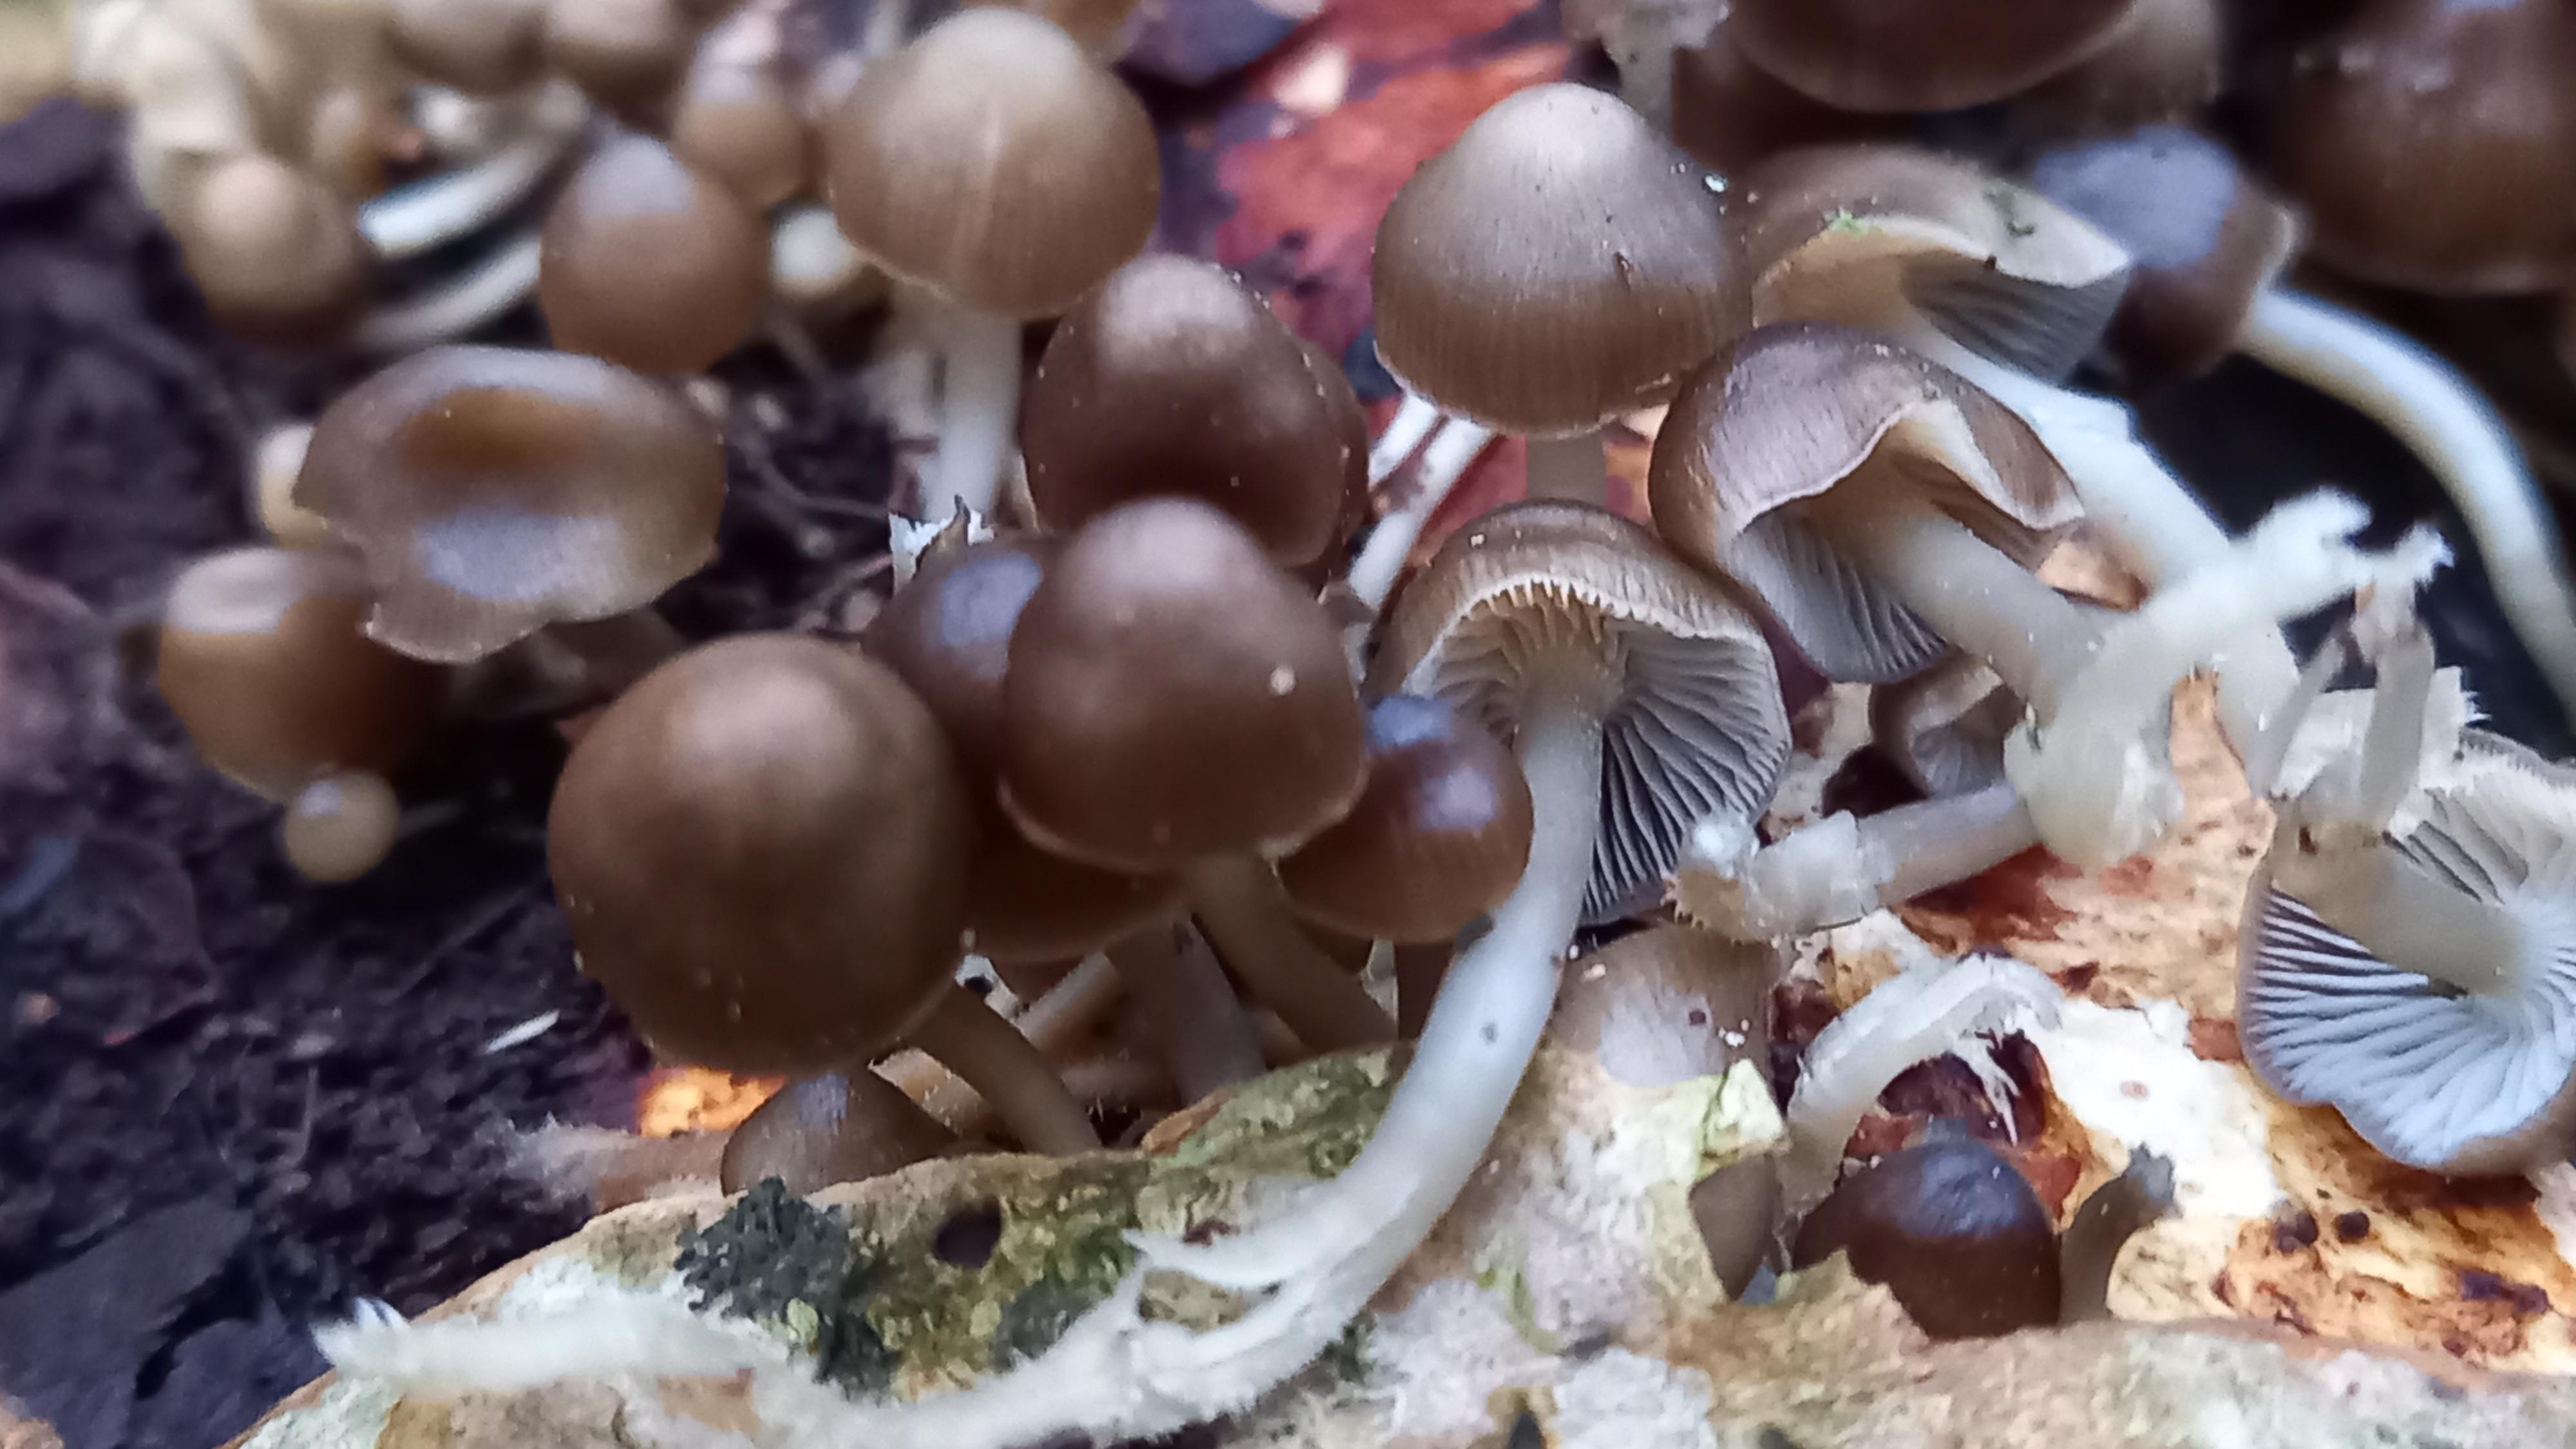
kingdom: Fungi
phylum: Basidiomycota
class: Agaricomycetes
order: Agaricales
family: Mycenaceae
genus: Mycena
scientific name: Mycena tintinnabulum
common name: vinter-huesvamp
